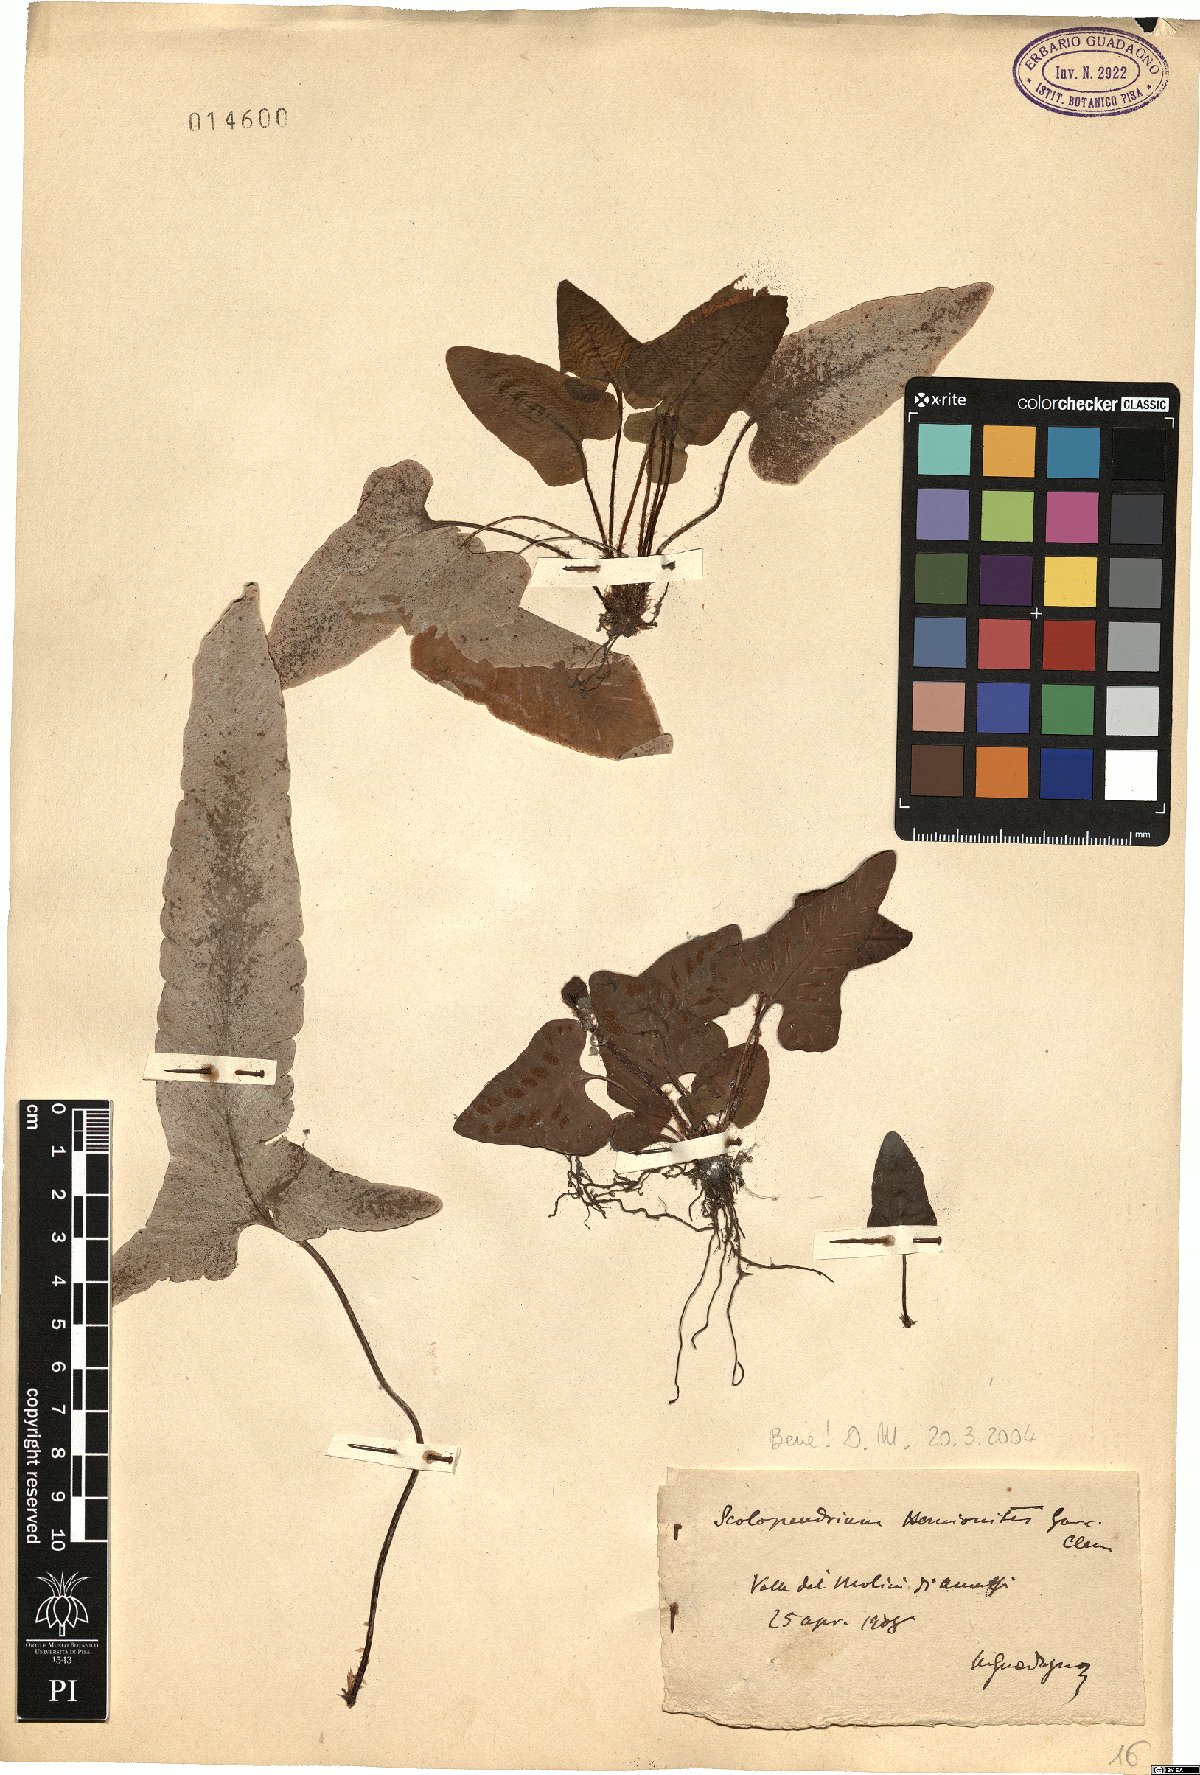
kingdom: Plantae
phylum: Tracheophyta
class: Polypodiopsida
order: Polypodiales
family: Aspleniaceae
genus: Asplenium
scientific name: Asplenium sagittatum
